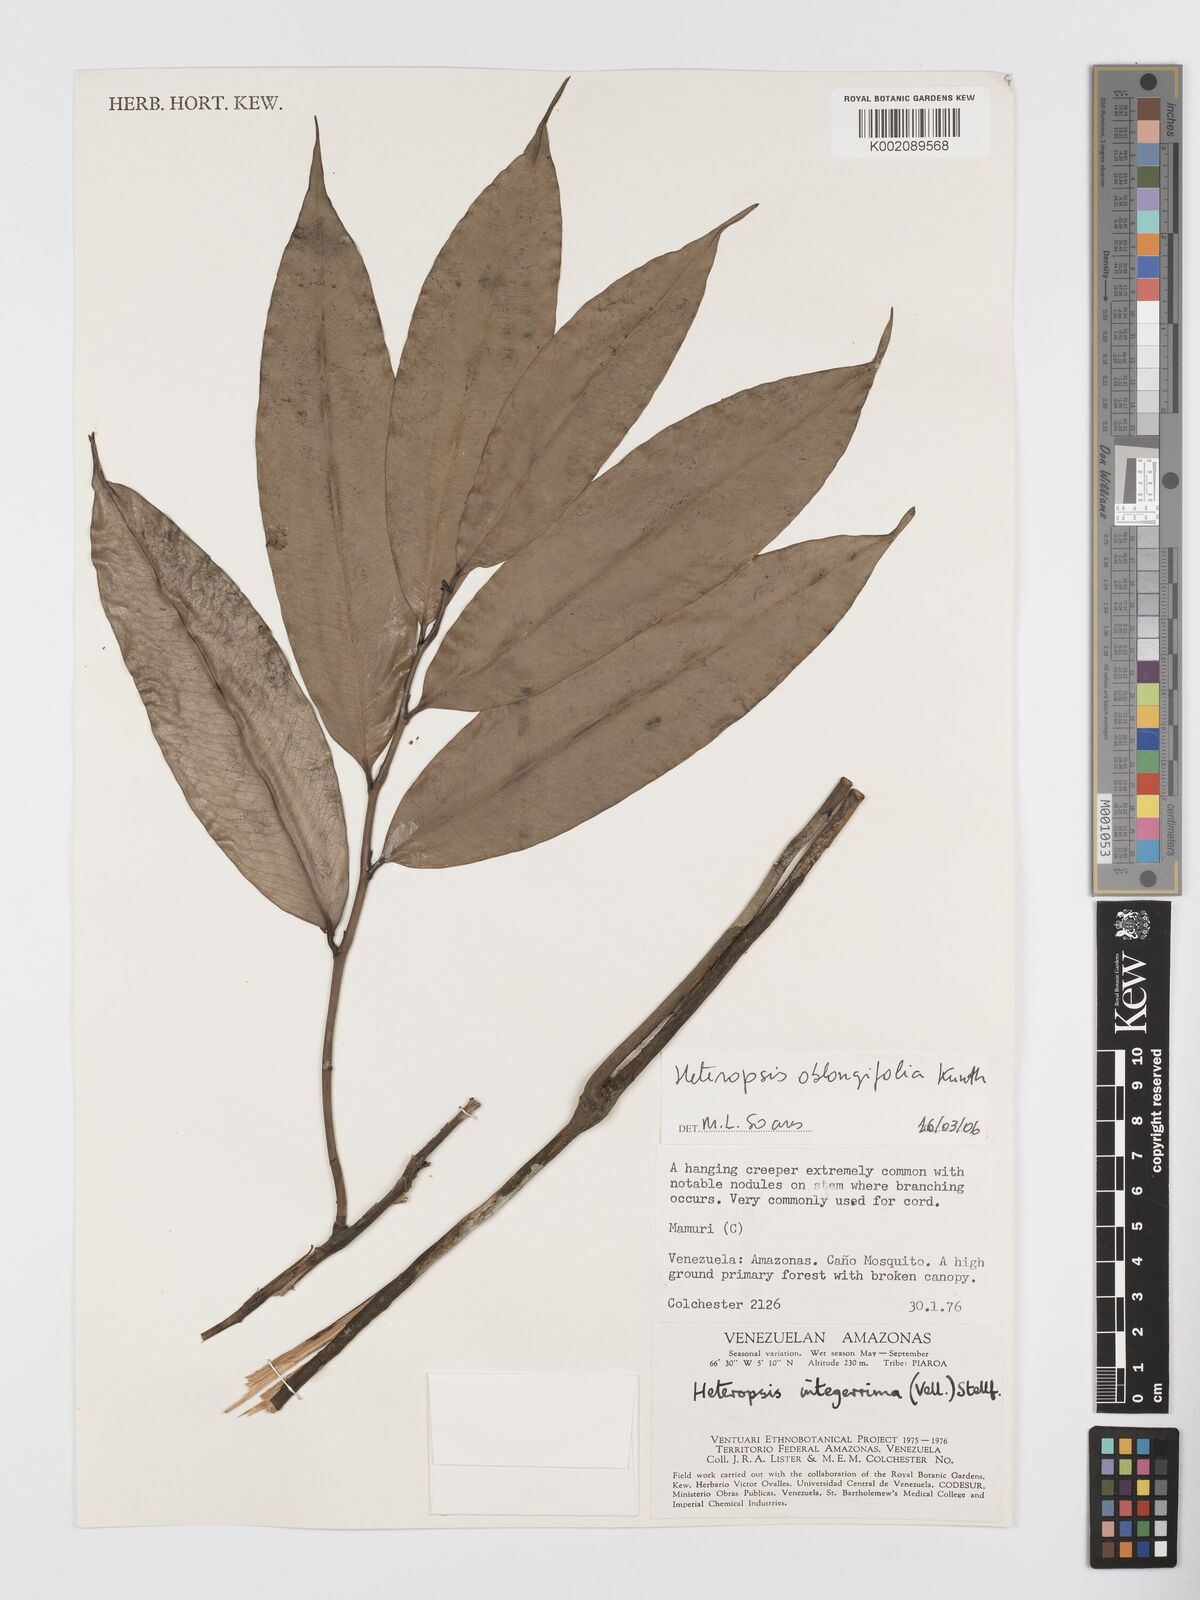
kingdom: Plantae
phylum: Tracheophyta
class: Liliopsida
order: Alismatales
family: Araceae
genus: Heteropsis
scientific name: Heteropsis oblongifolia
